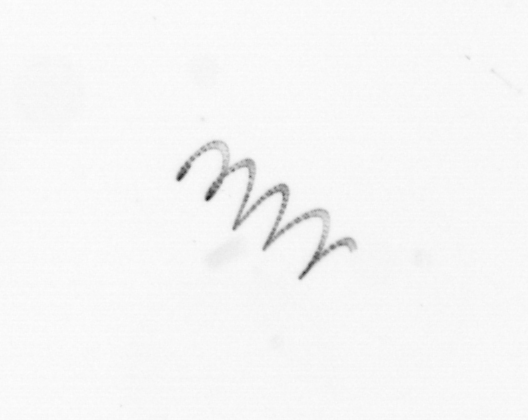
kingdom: Chromista
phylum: Ochrophyta
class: Bacillariophyceae
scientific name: Bacillariophyceae
